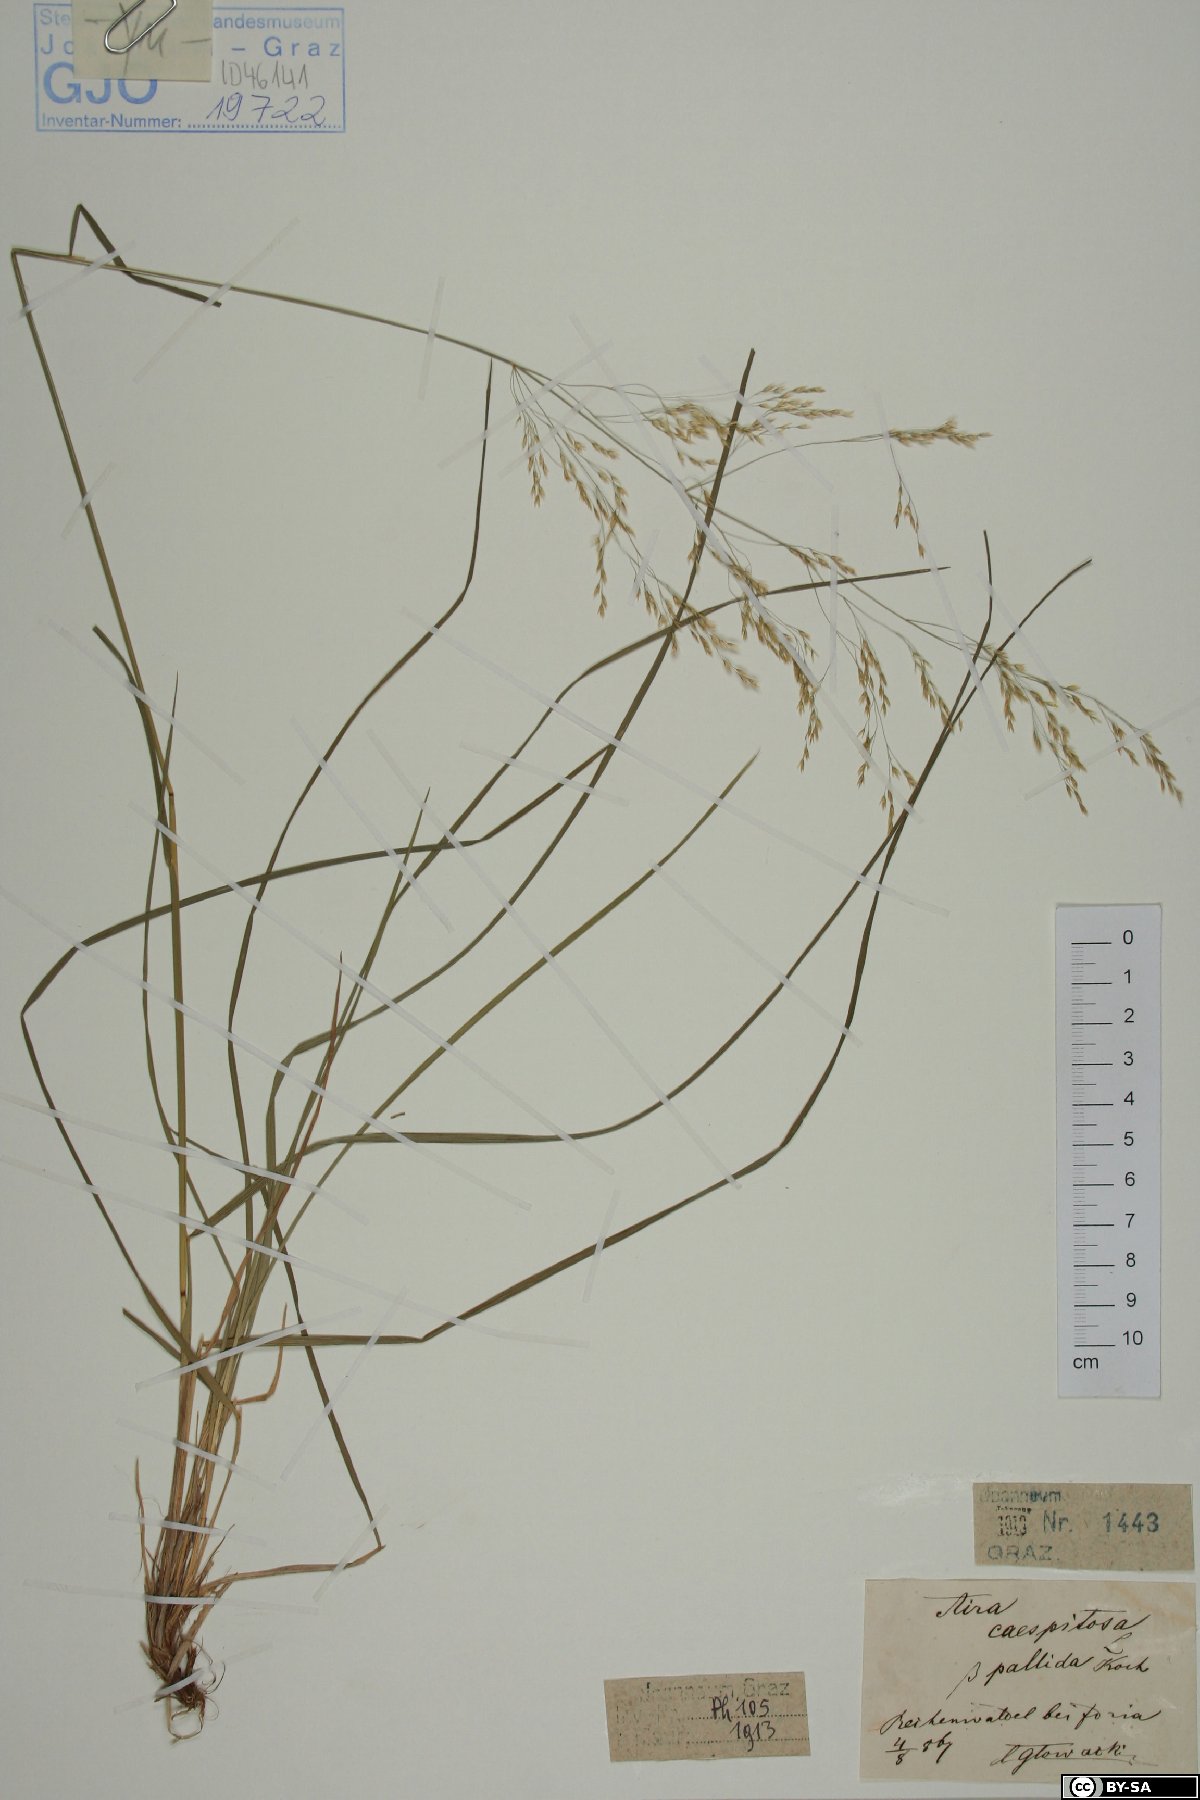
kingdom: Plantae
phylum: Tracheophyta
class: Liliopsida
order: Poales
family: Poaceae
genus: Deschampsia
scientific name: Deschampsia cespitosa
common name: Tufted hair-grass
